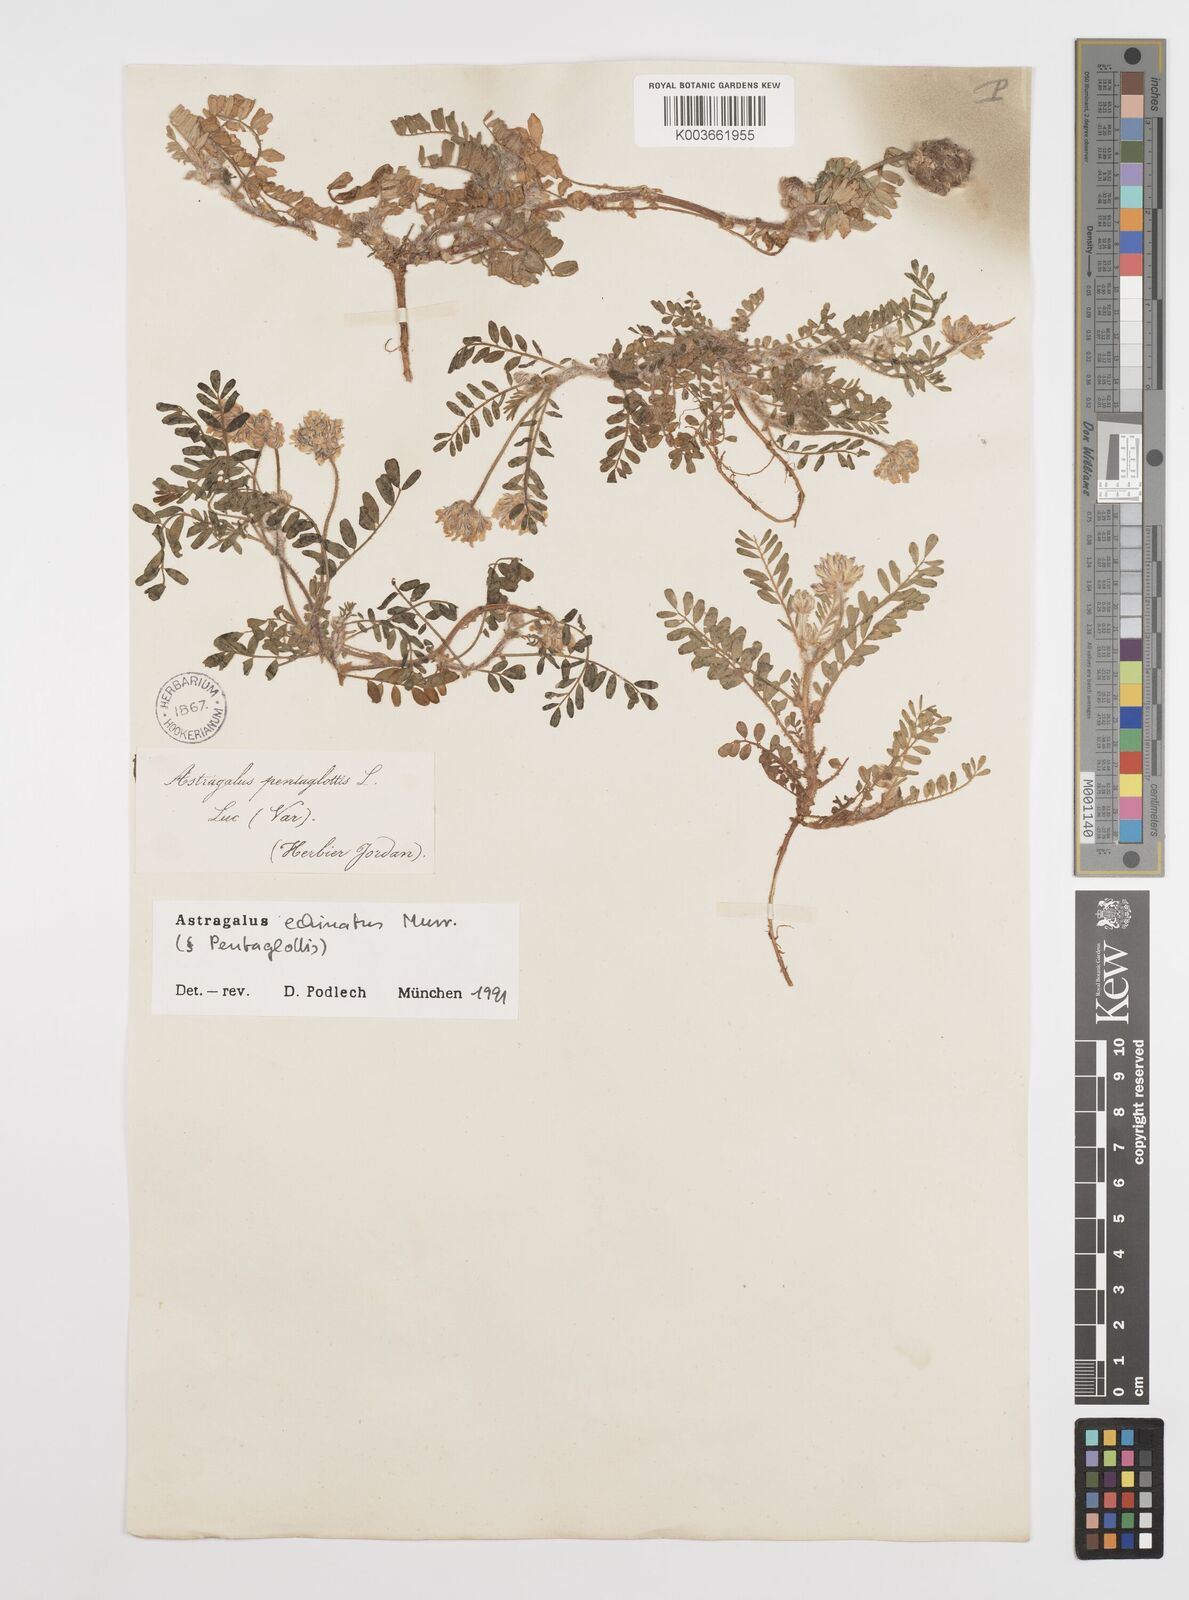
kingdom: Plantae
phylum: Tracheophyta
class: Magnoliopsida
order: Fabales
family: Fabaceae
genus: Astragalus
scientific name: Astragalus echinatus
